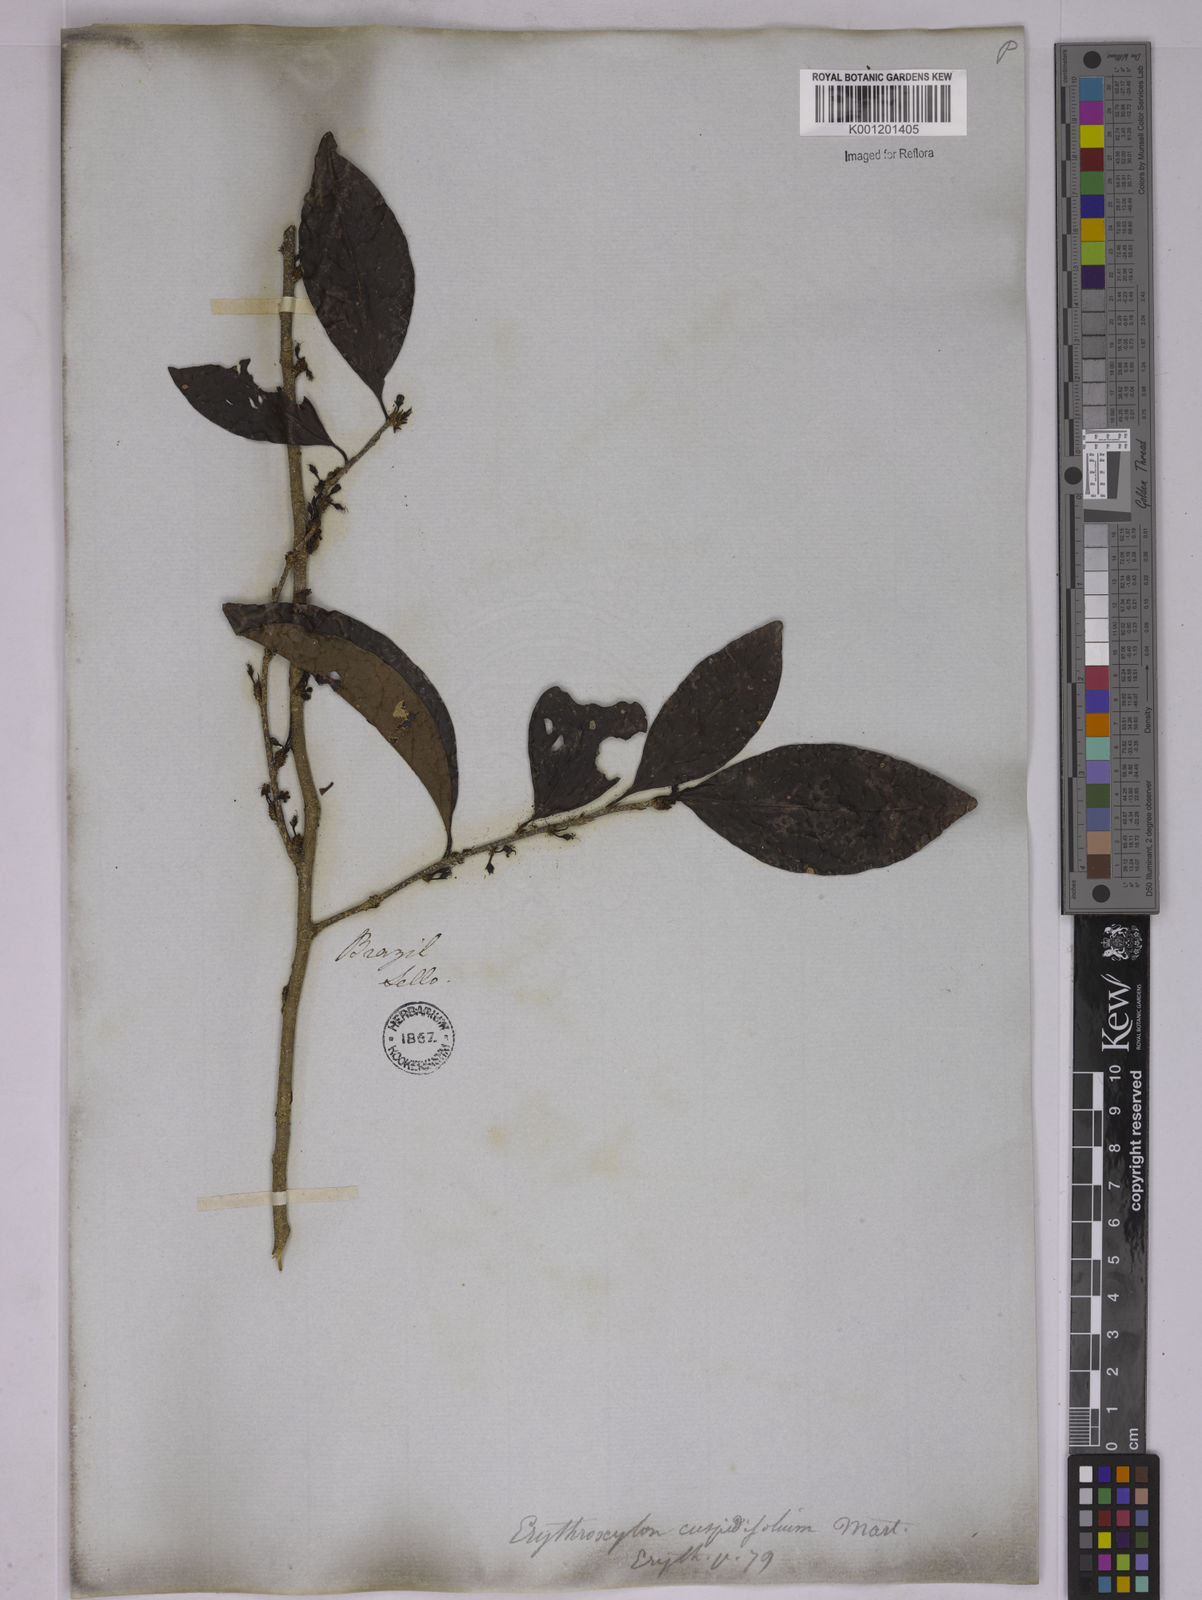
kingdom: Plantae
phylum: Tracheophyta
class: Magnoliopsida
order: Malpighiales
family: Erythroxylaceae
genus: Erythroxylum
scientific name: Erythroxylum cuspidifolium
